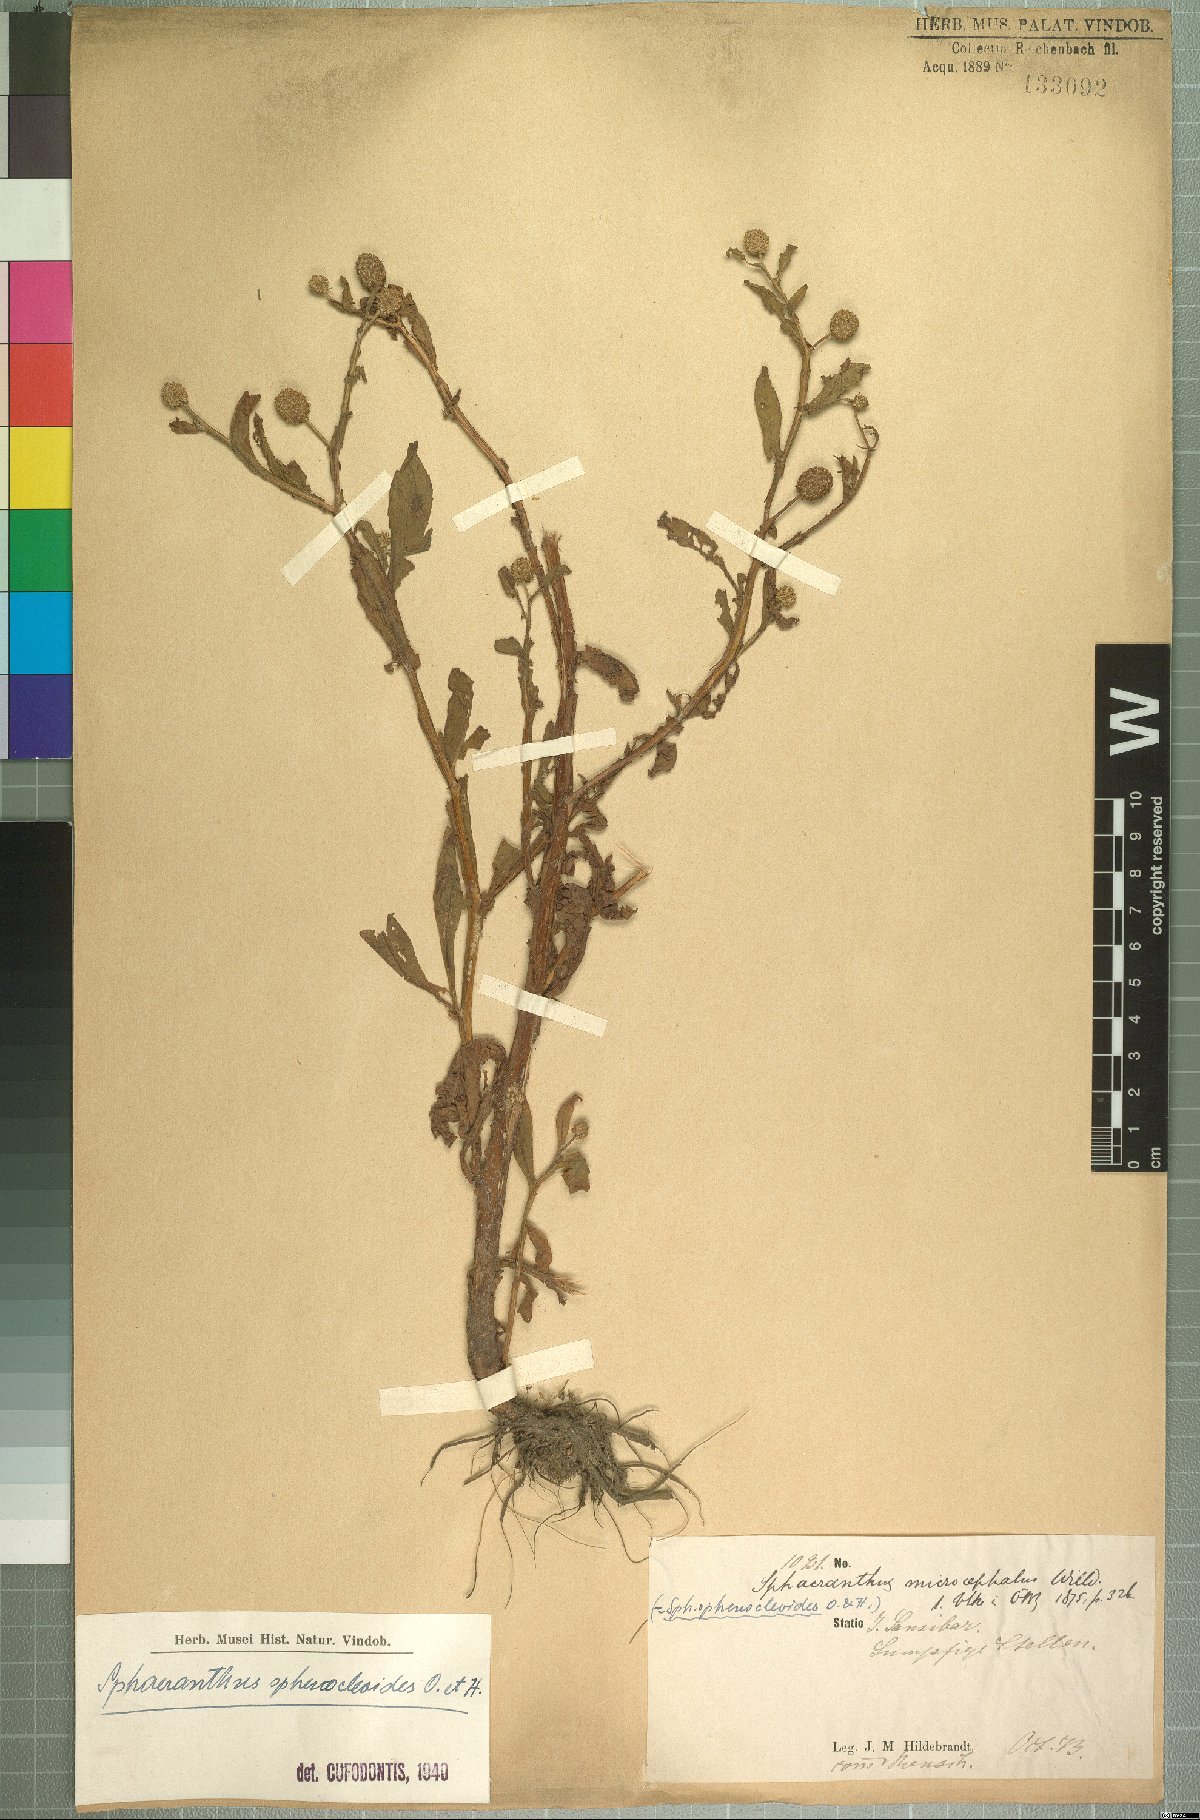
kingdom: Plantae
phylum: Tracheophyta
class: Magnoliopsida
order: Asterales
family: Asteraceae
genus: Sphaeranthus
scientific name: Sphaeranthus africanus
